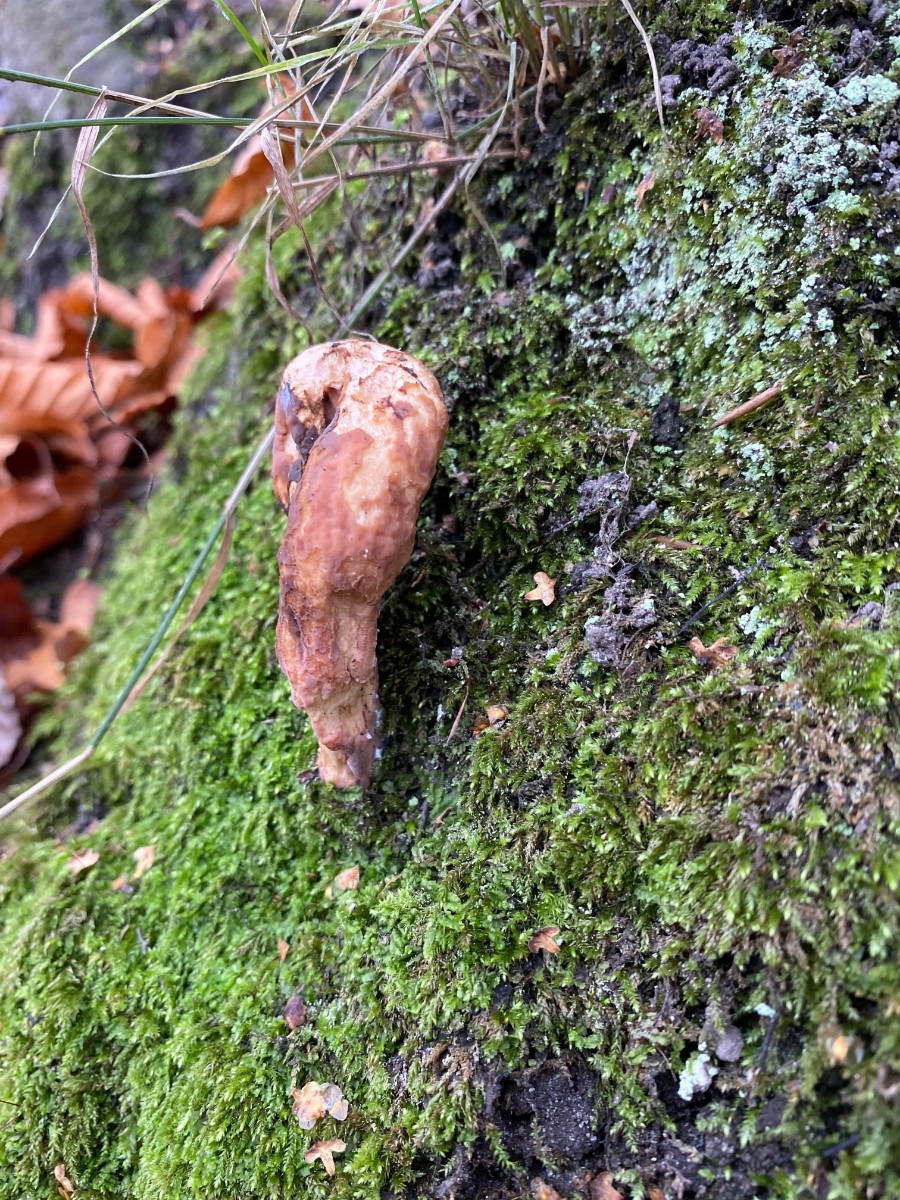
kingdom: Fungi
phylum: Basidiomycota
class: Agaricomycetes
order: Gomphales
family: Clavariadelphaceae
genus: Clavariadelphus
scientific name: Clavariadelphus pistillaris
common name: herkules-kæmpekølle
